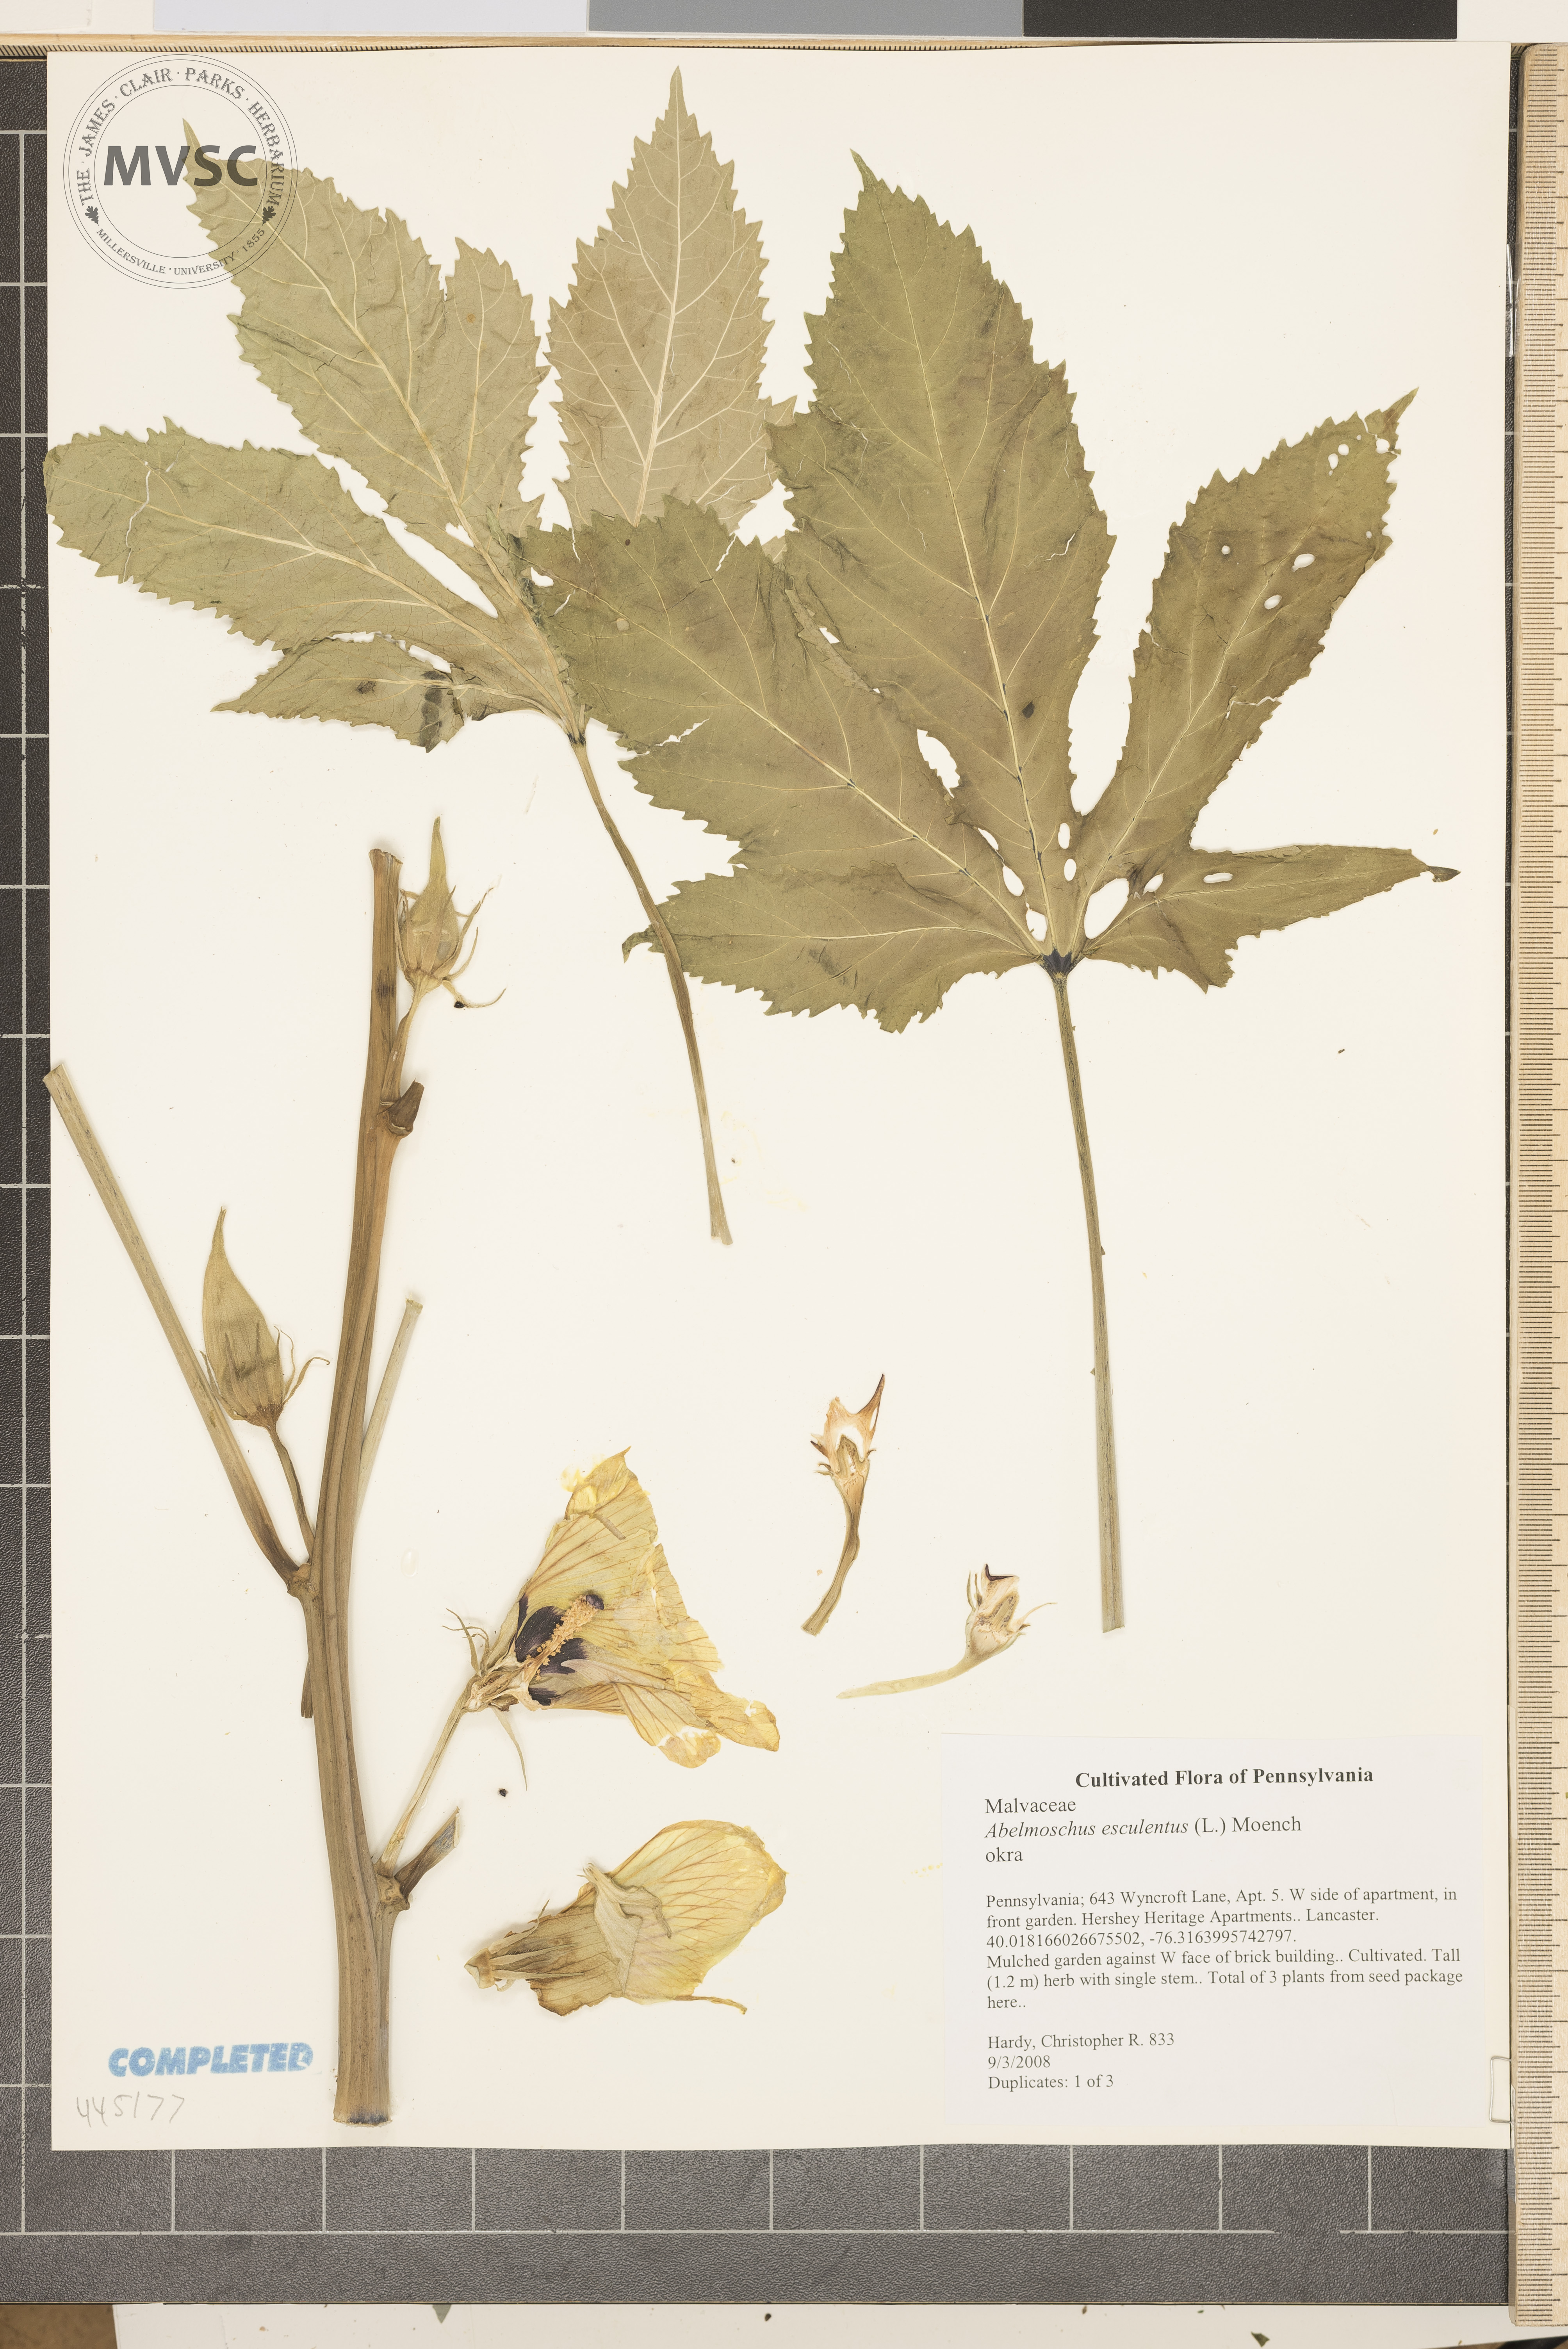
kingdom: Plantae
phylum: Tracheophyta
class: Magnoliopsida
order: Malvales
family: Malvaceae
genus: Abelmoschus
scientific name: Abelmoschus esculentus
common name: Okra
